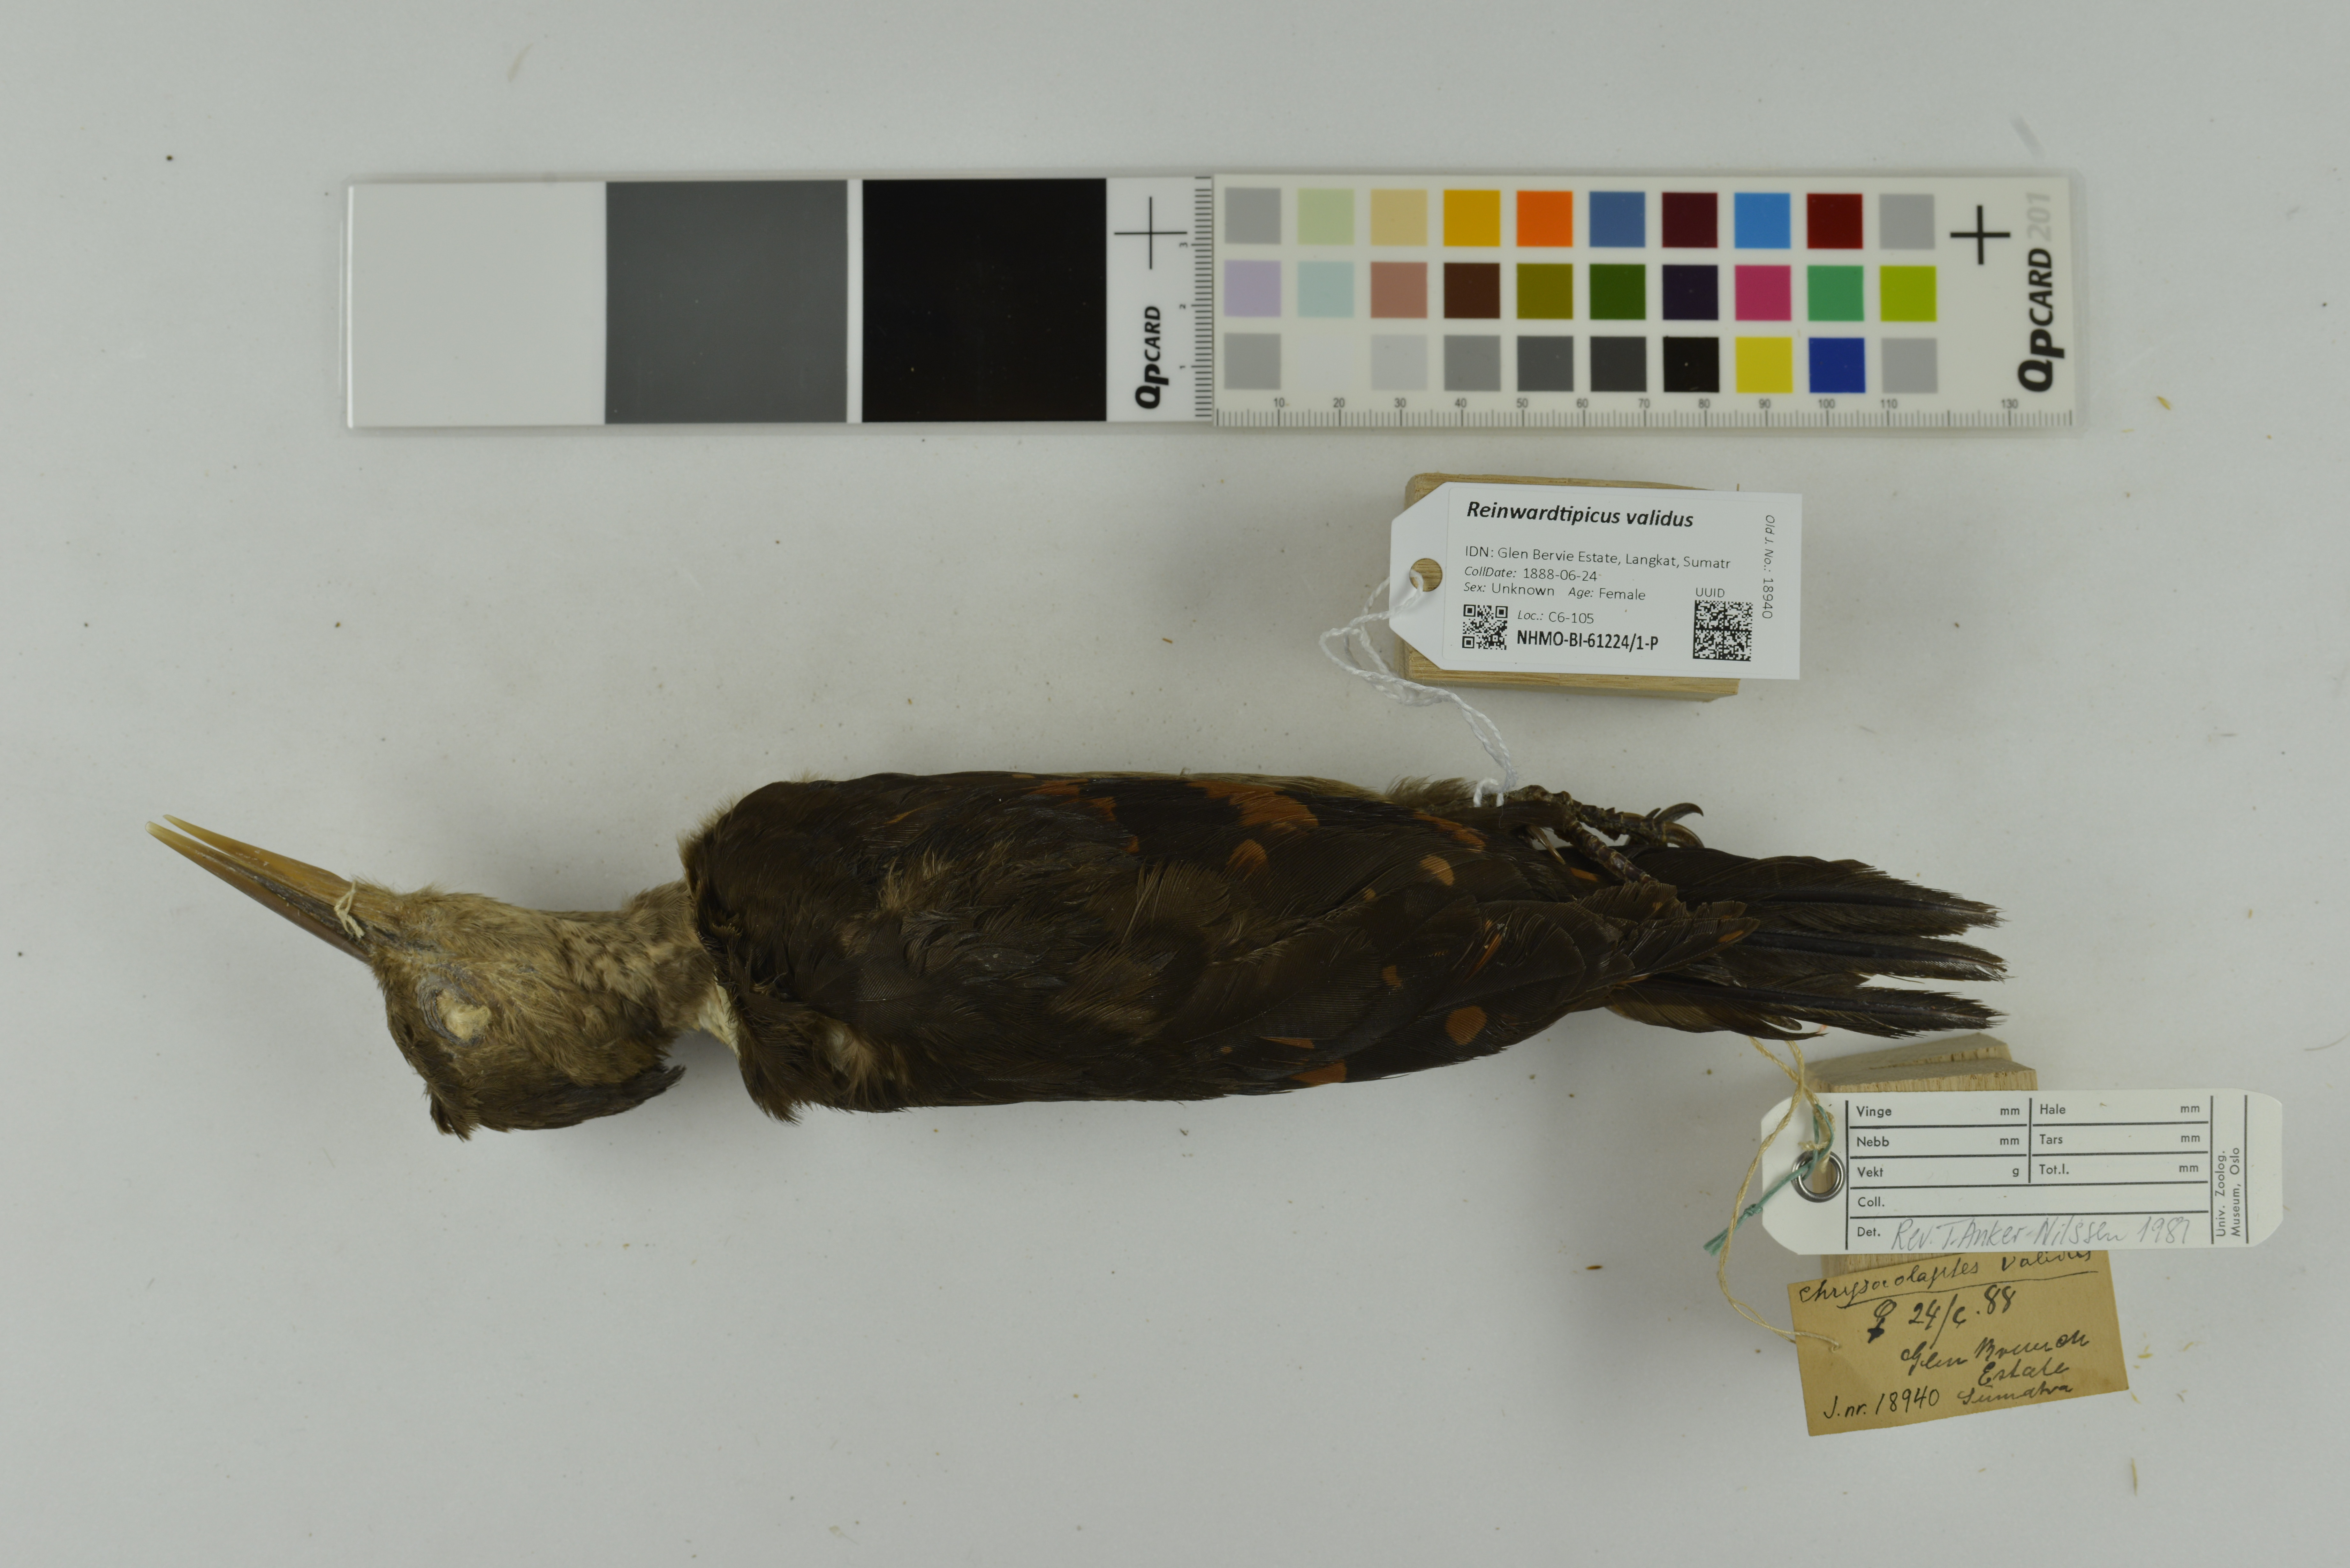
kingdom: Animalia
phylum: Chordata
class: Aves
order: Piciformes
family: Picidae
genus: Reinwardtipicus
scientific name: Reinwardtipicus validus
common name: Orange-backed woodpecker
